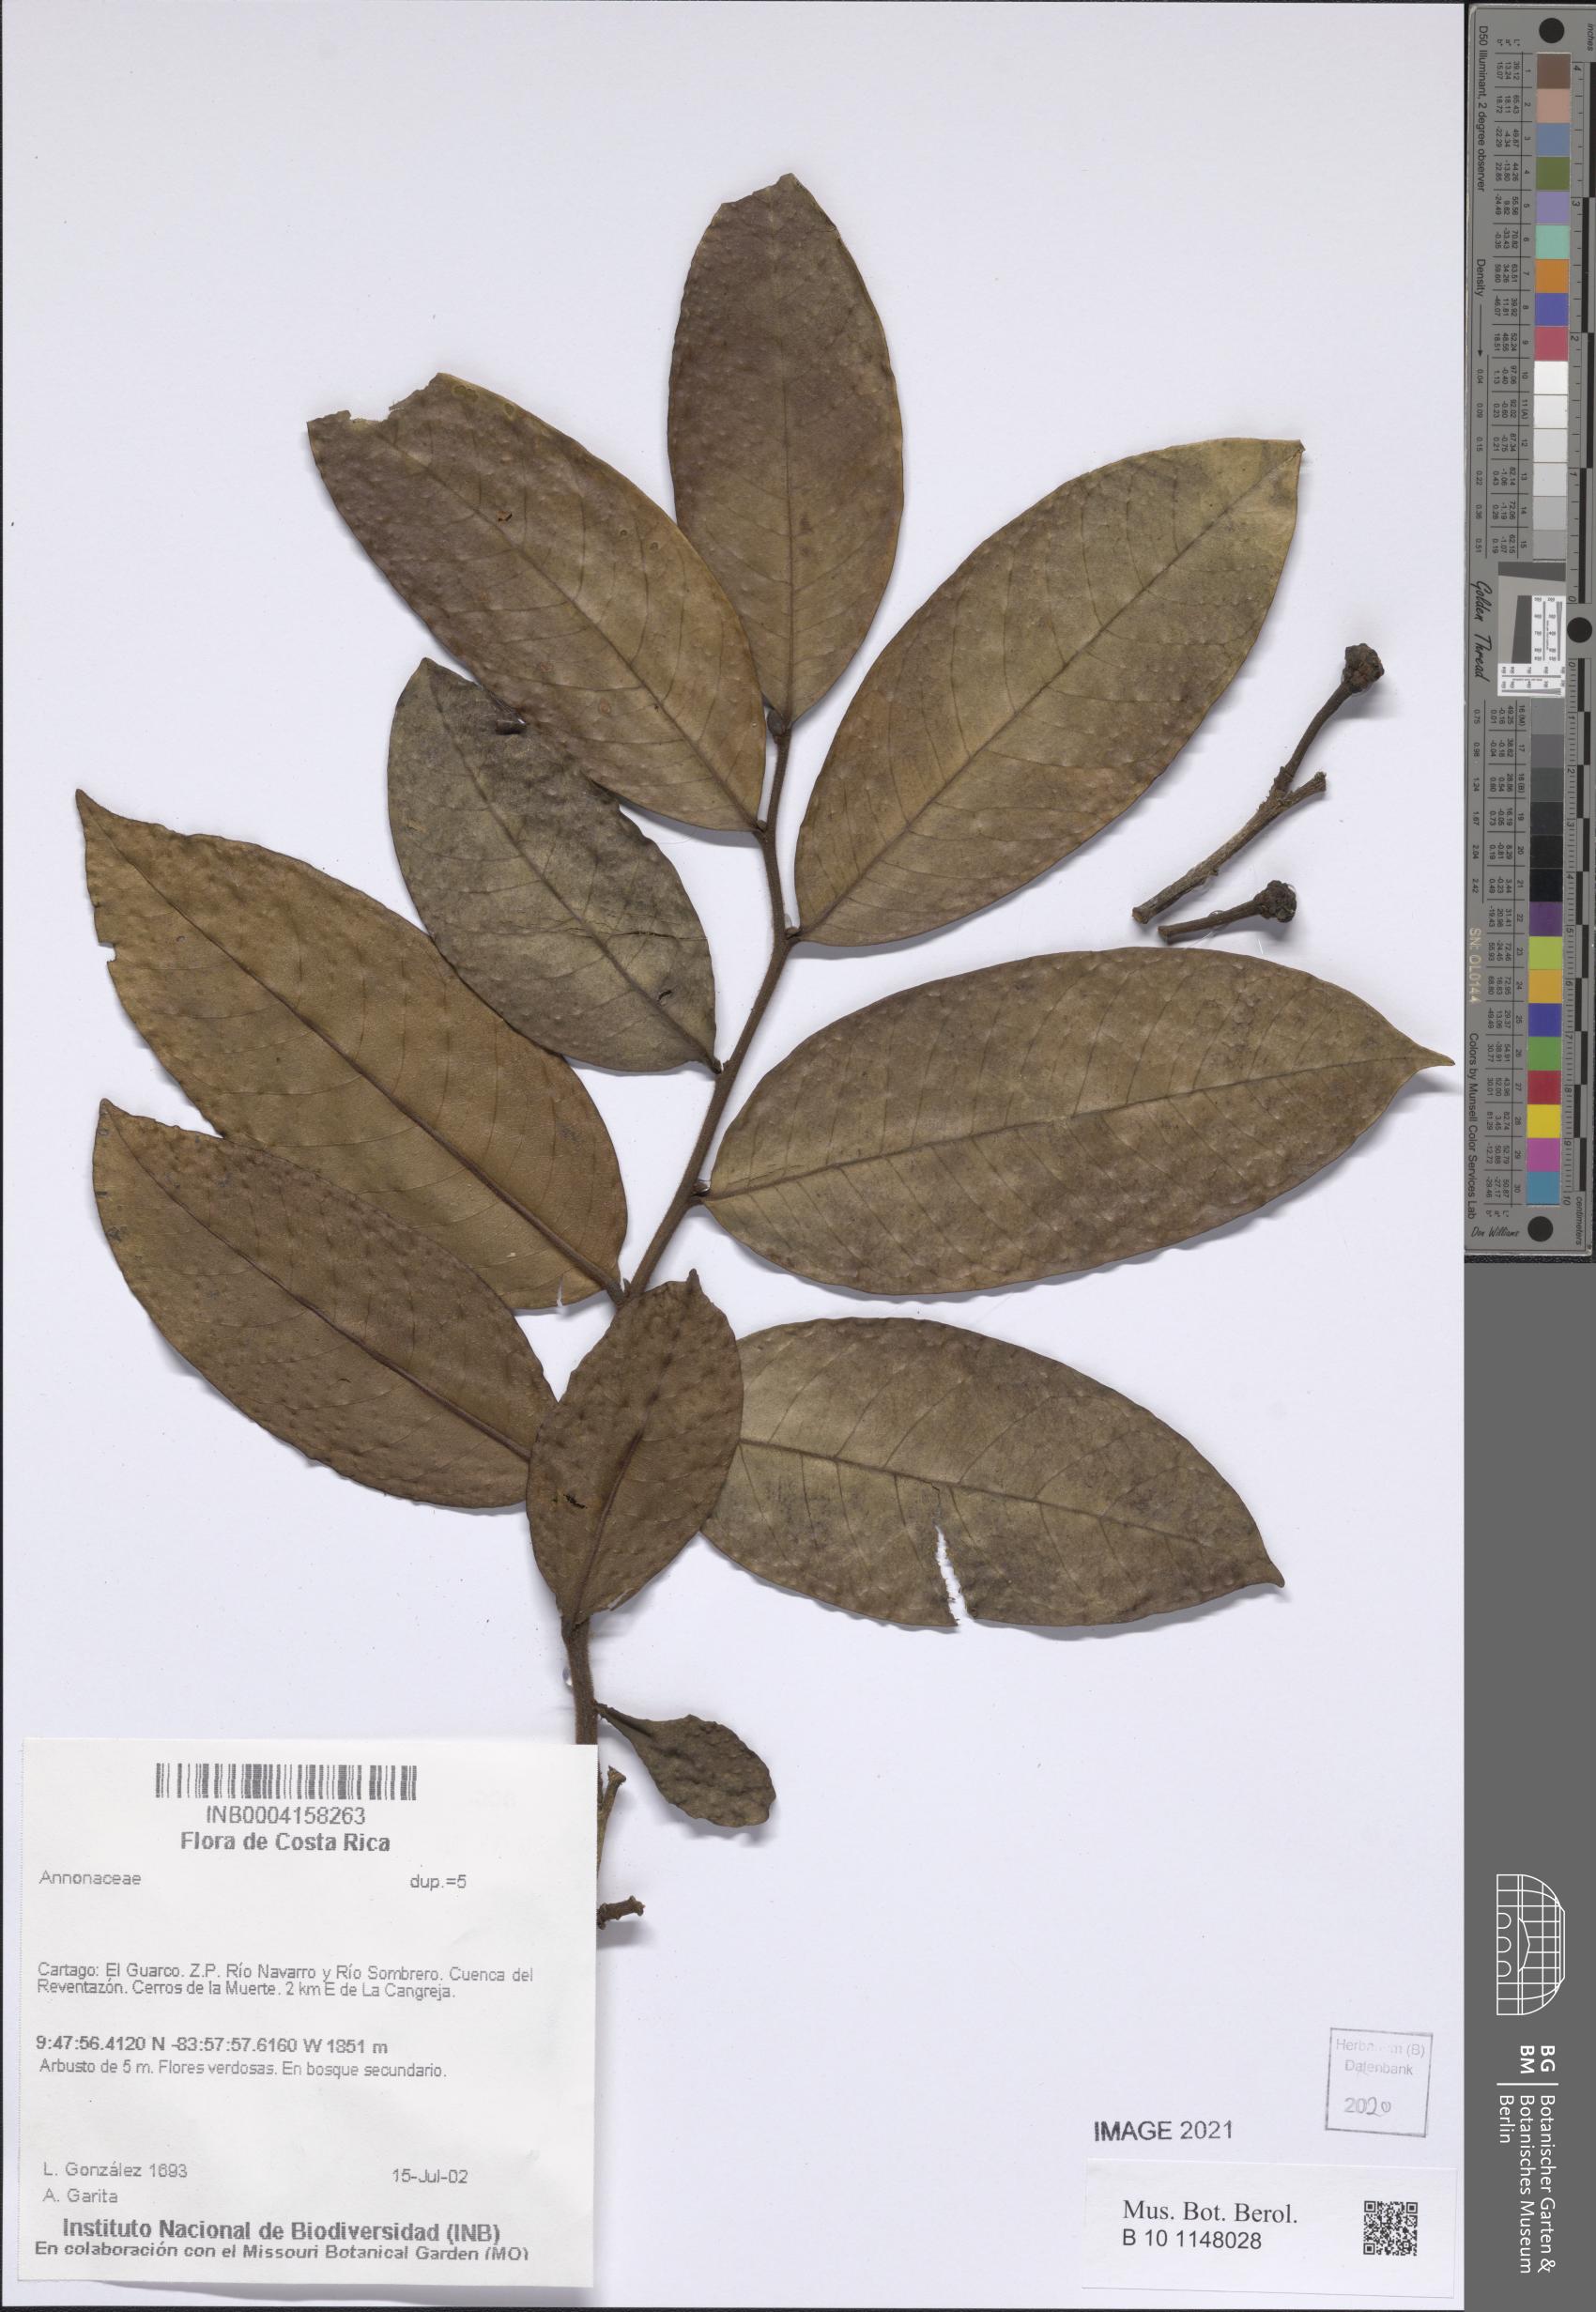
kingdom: Plantae
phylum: Tracheophyta
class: Magnoliopsida
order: Magnoliales
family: Annonaceae
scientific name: Annonaceae
